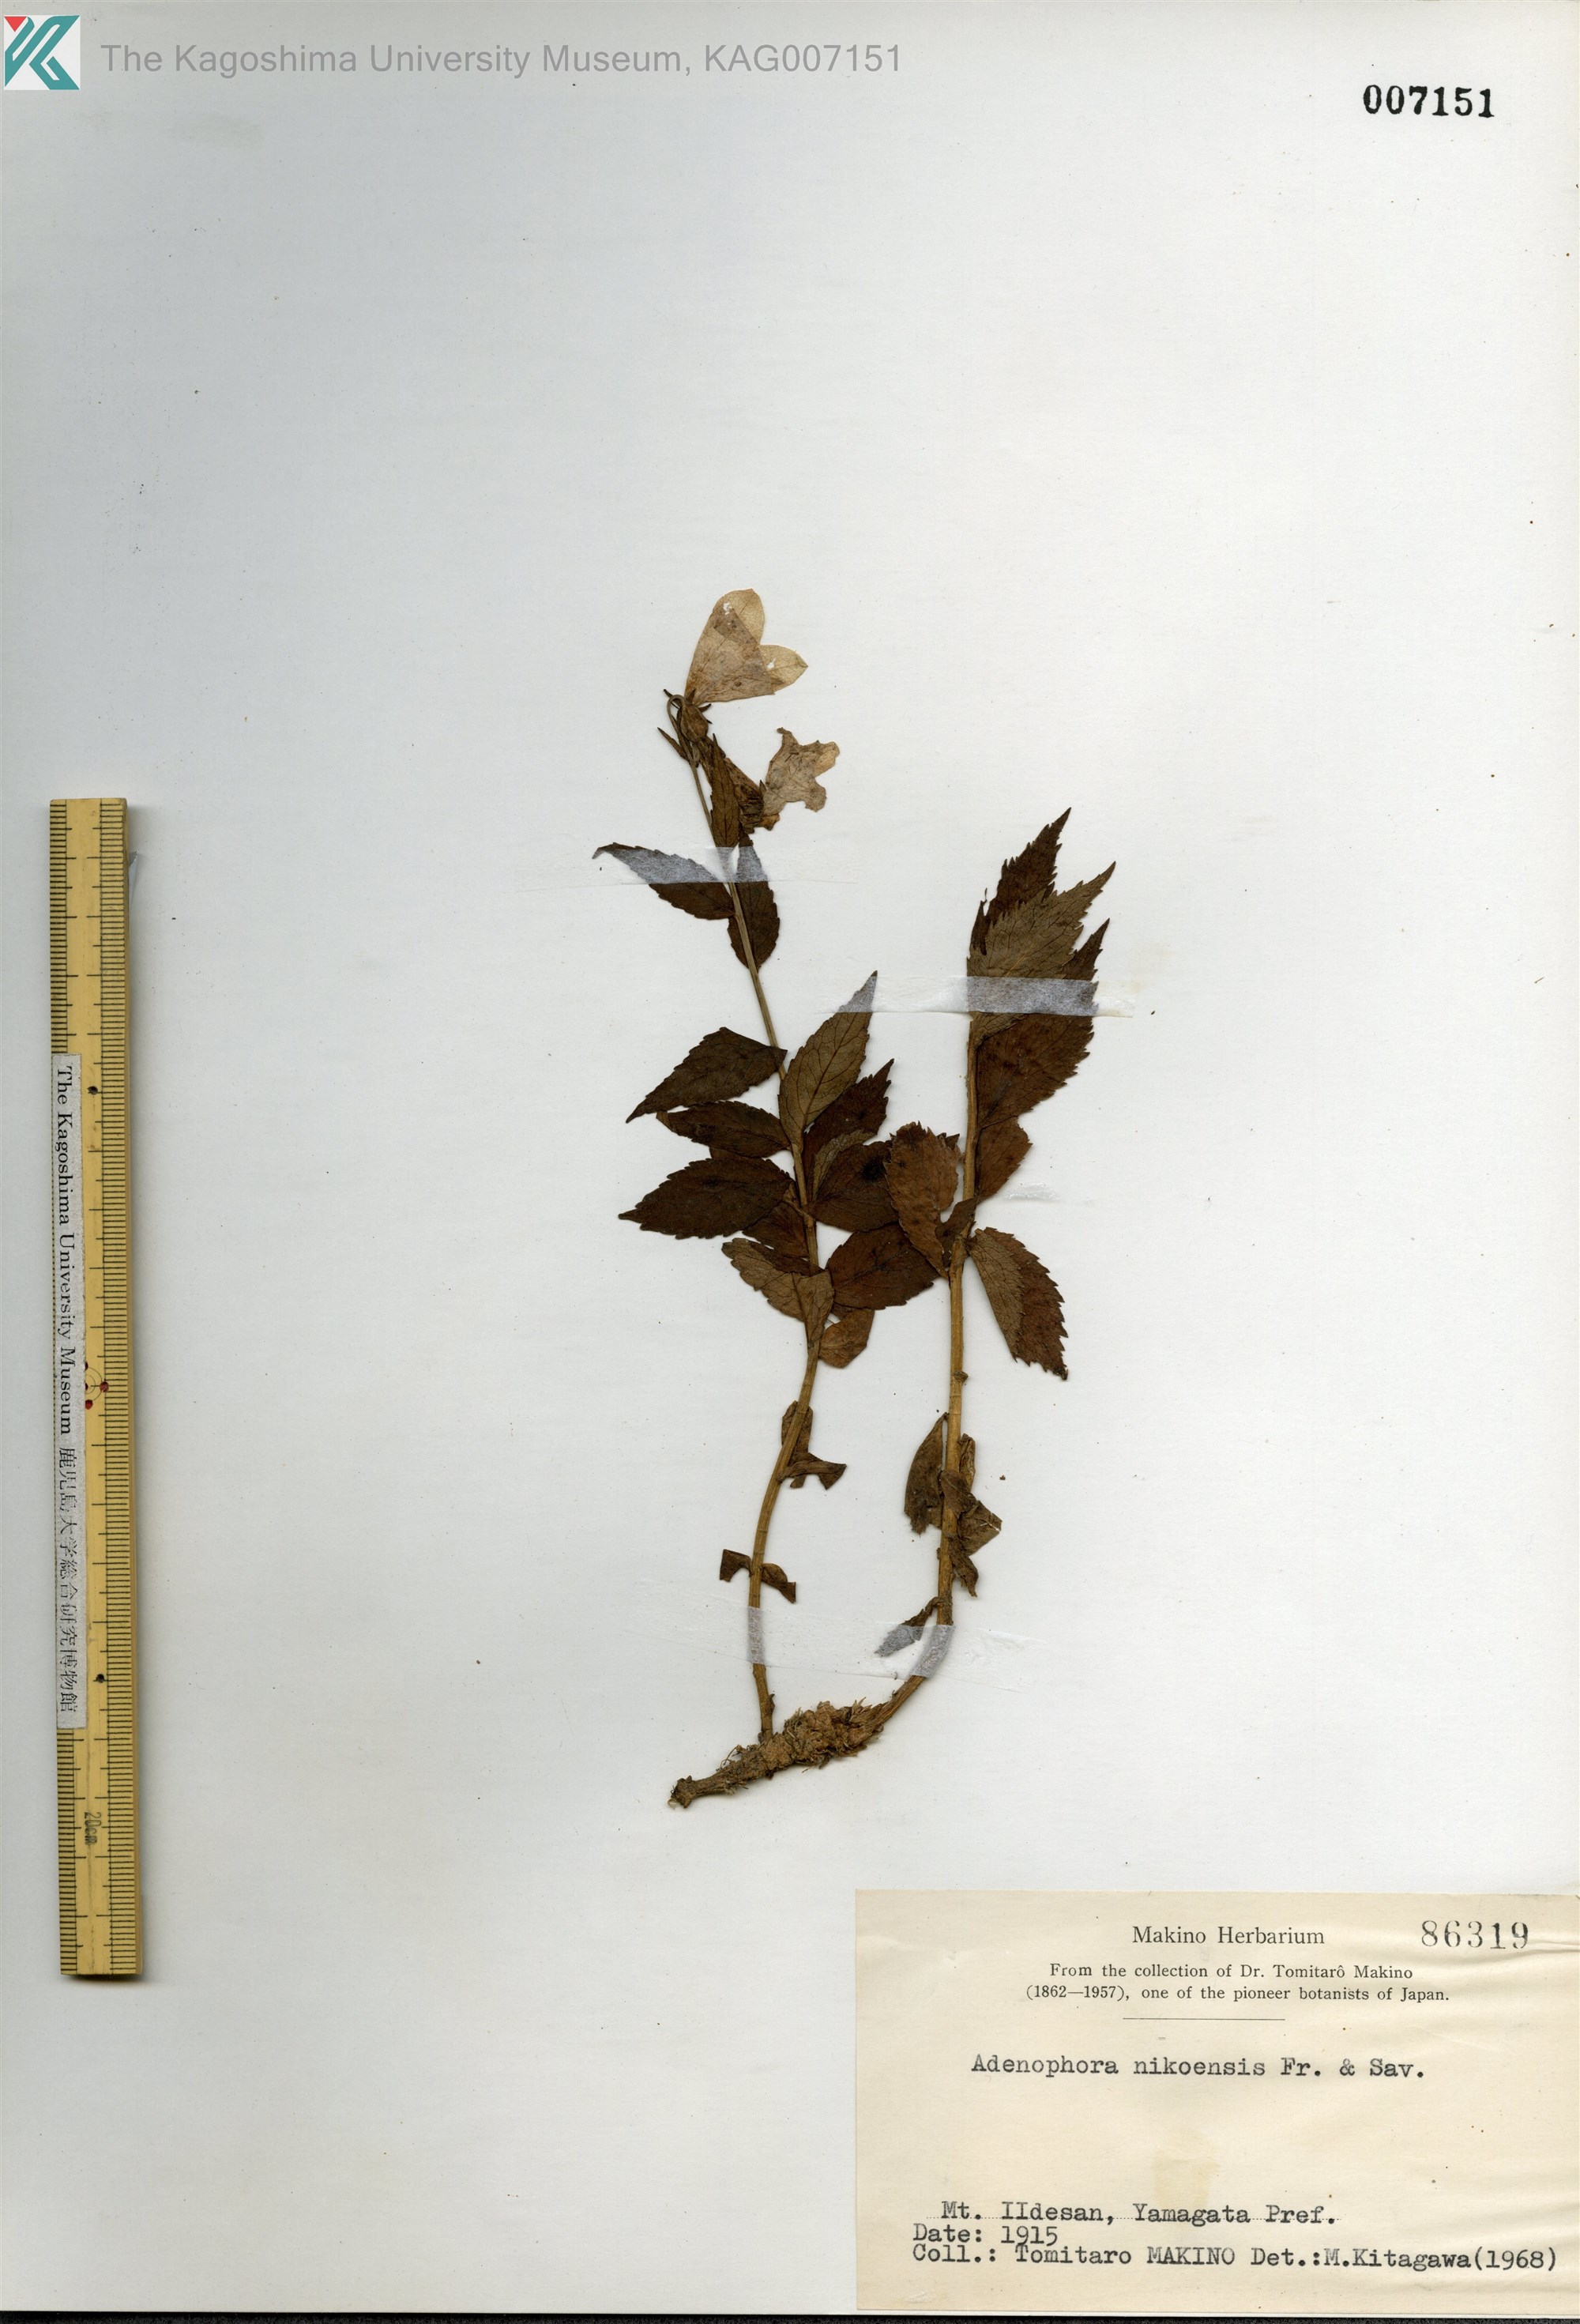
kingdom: Plantae
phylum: Tracheophyta
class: Magnoliopsida
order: Asterales
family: Campanulaceae
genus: Adenophora
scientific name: Adenophora nikoensis
